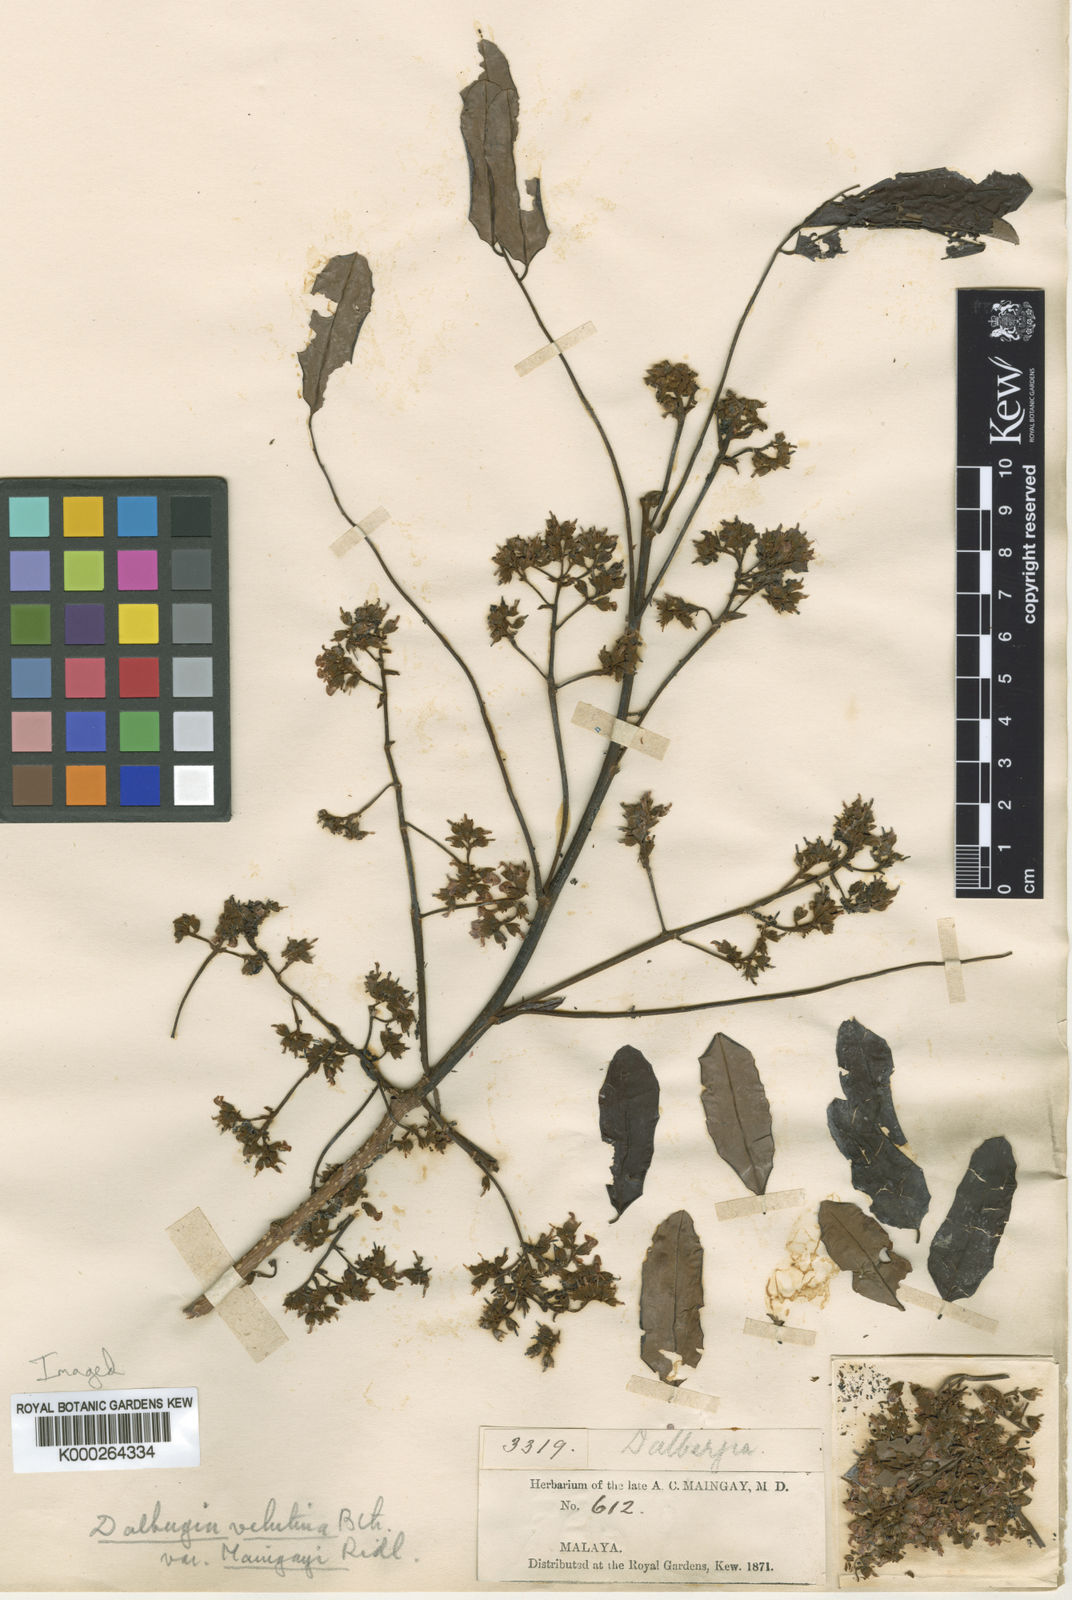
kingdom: Plantae
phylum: Tracheophyta
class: Magnoliopsida
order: Fabales
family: Fabaceae
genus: Dalbergia
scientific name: Dalbergia velutina
